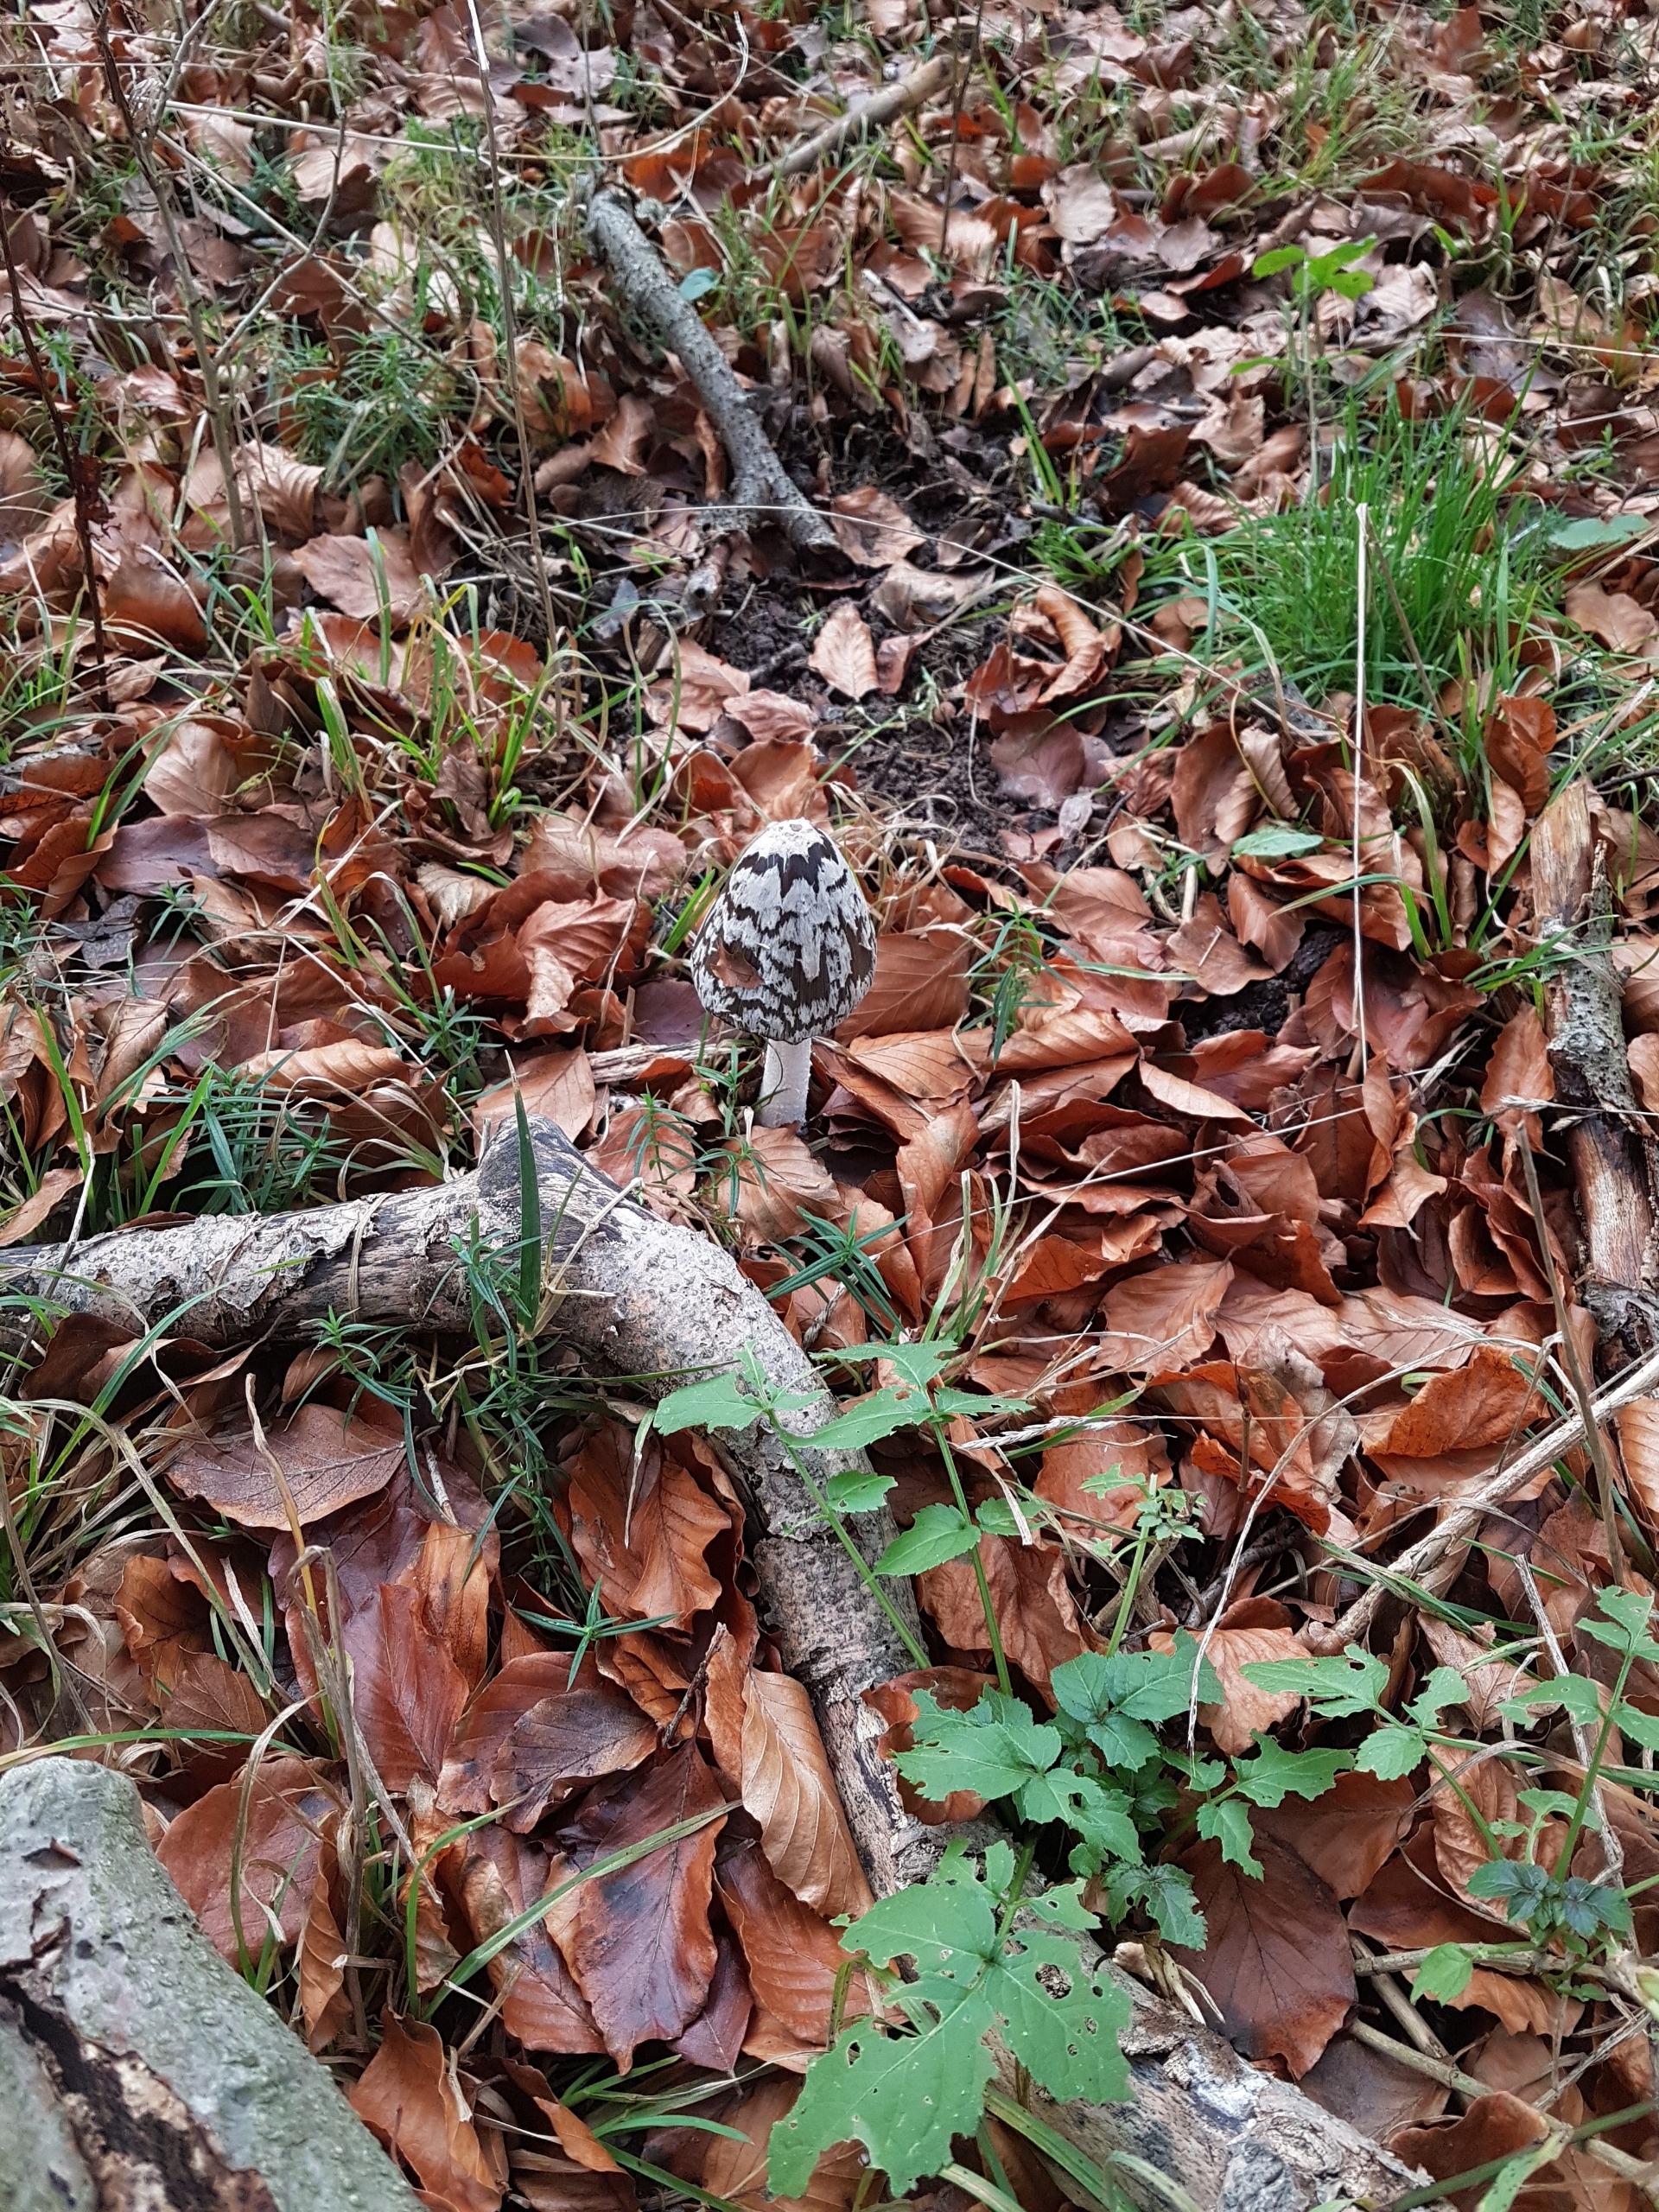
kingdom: Fungi
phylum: Basidiomycota
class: Agaricomycetes
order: Agaricales
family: Psathyrellaceae
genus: Coprinopsis
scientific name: Coprinopsis picacea
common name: Skade-blækhat
